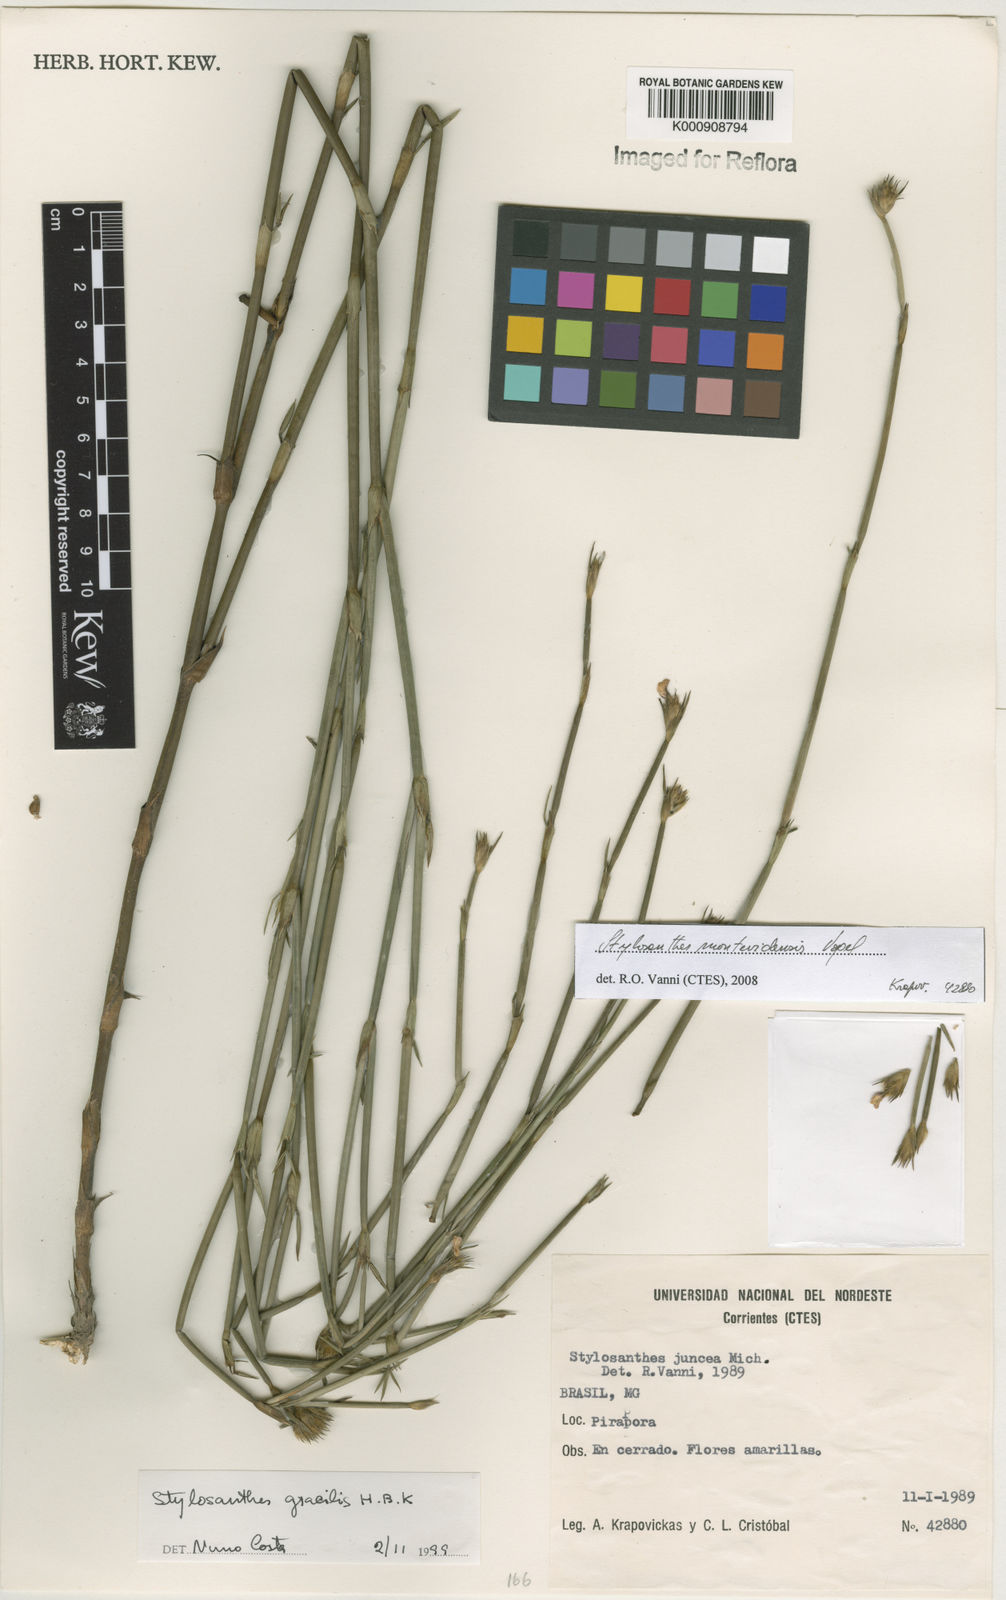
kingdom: Plantae
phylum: Tracheophyta
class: Magnoliopsida
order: Fabales
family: Fabaceae
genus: Stylosanthes
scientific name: Stylosanthes montevidensis
